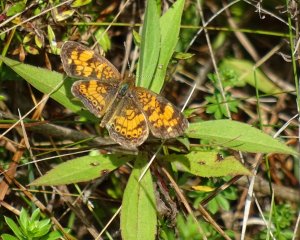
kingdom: Animalia
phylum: Arthropoda
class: Insecta
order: Lepidoptera
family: Nymphalidae
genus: Phyciodes
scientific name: Phyciodes tharos
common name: Pearl Crescent
